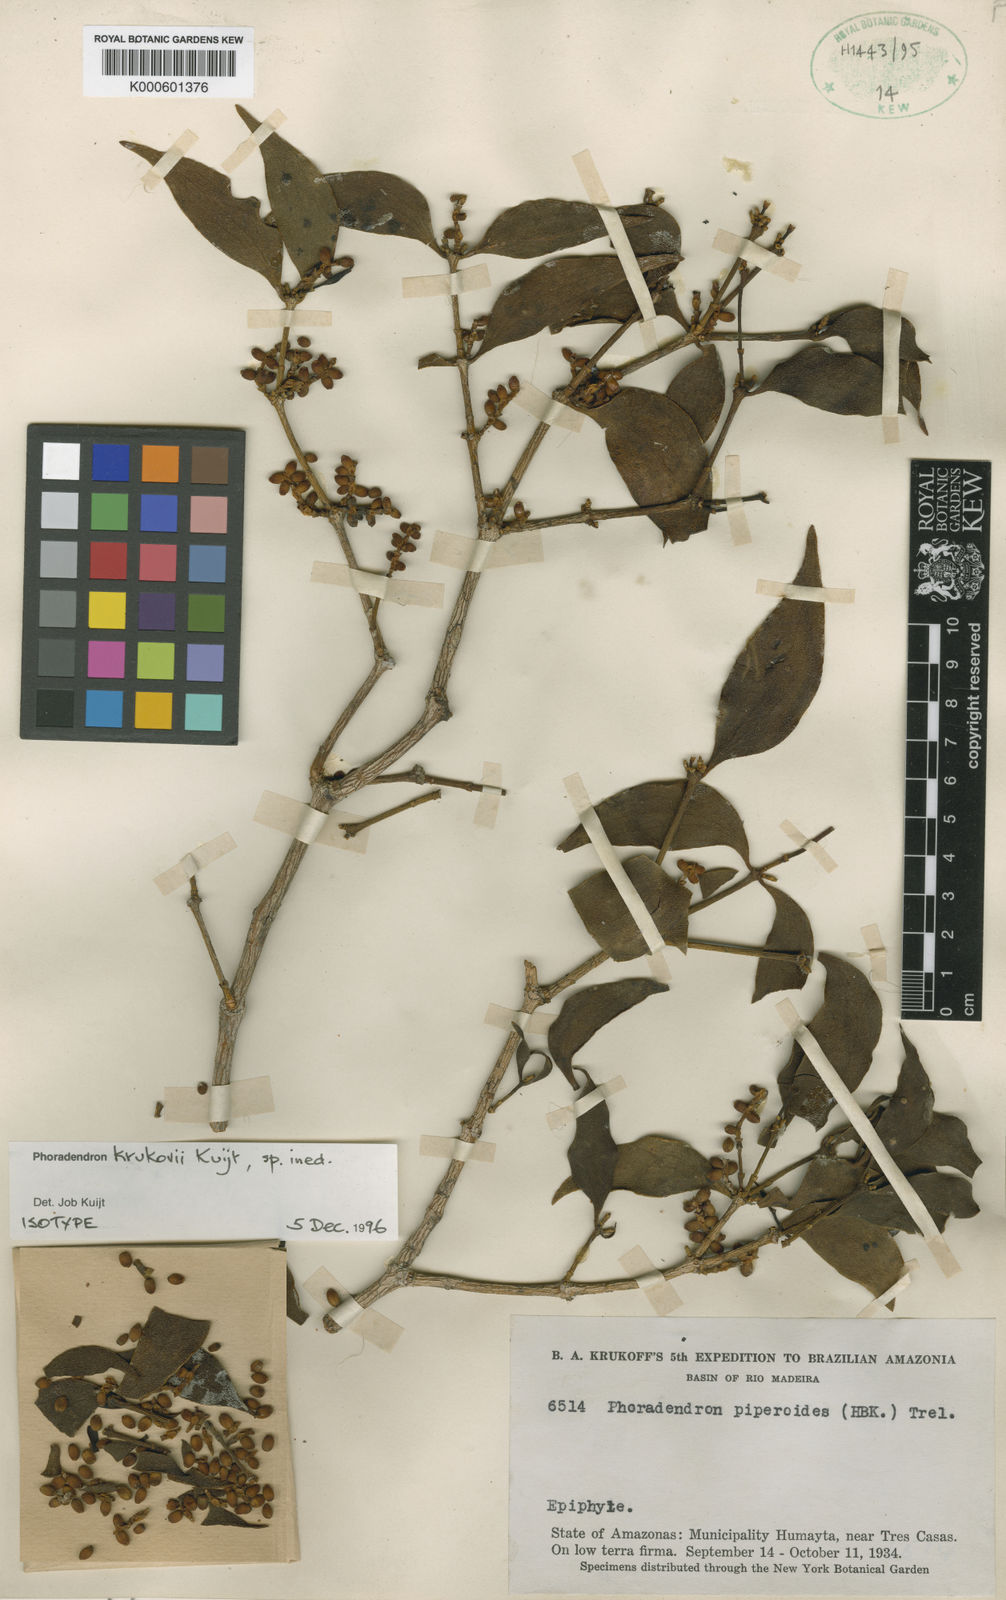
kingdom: Plantae
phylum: Tracheophyta
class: Magnoliopsida
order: Santalales
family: Viscaceae
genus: Phoradendron
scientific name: Phoradendron krukovii
